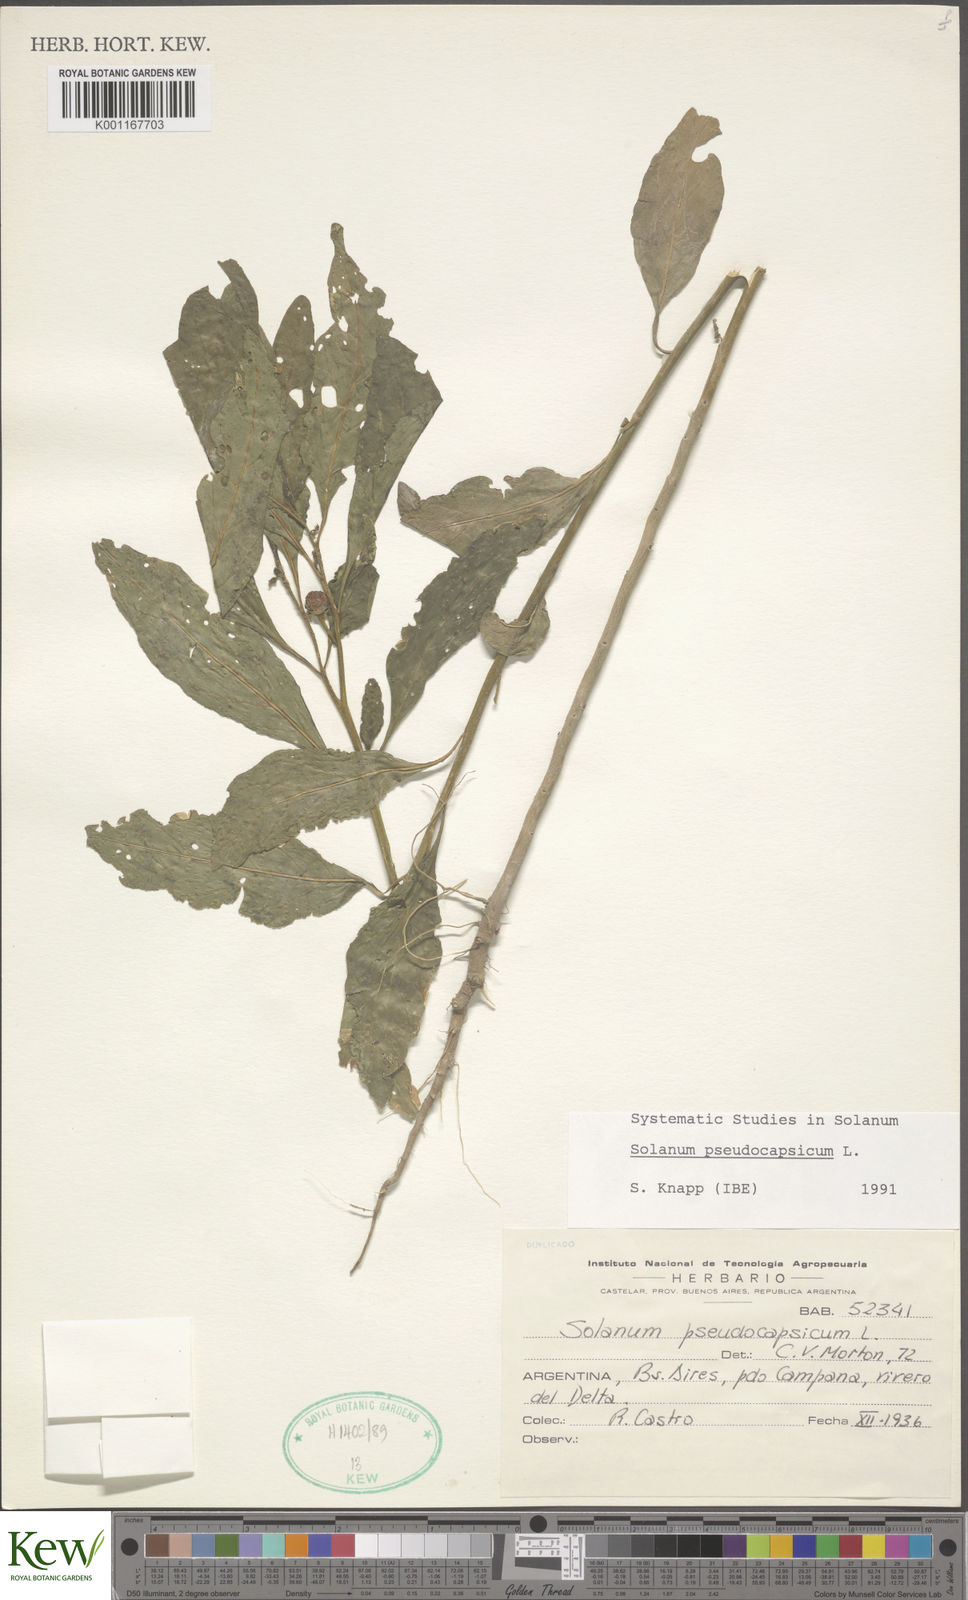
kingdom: Plantae
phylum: Tracheophyta
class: Magnoliopsida
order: Solanales
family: Solanaceae
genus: Solanum
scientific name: Solanum pseudocapsicum
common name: Jerusalem cherry
